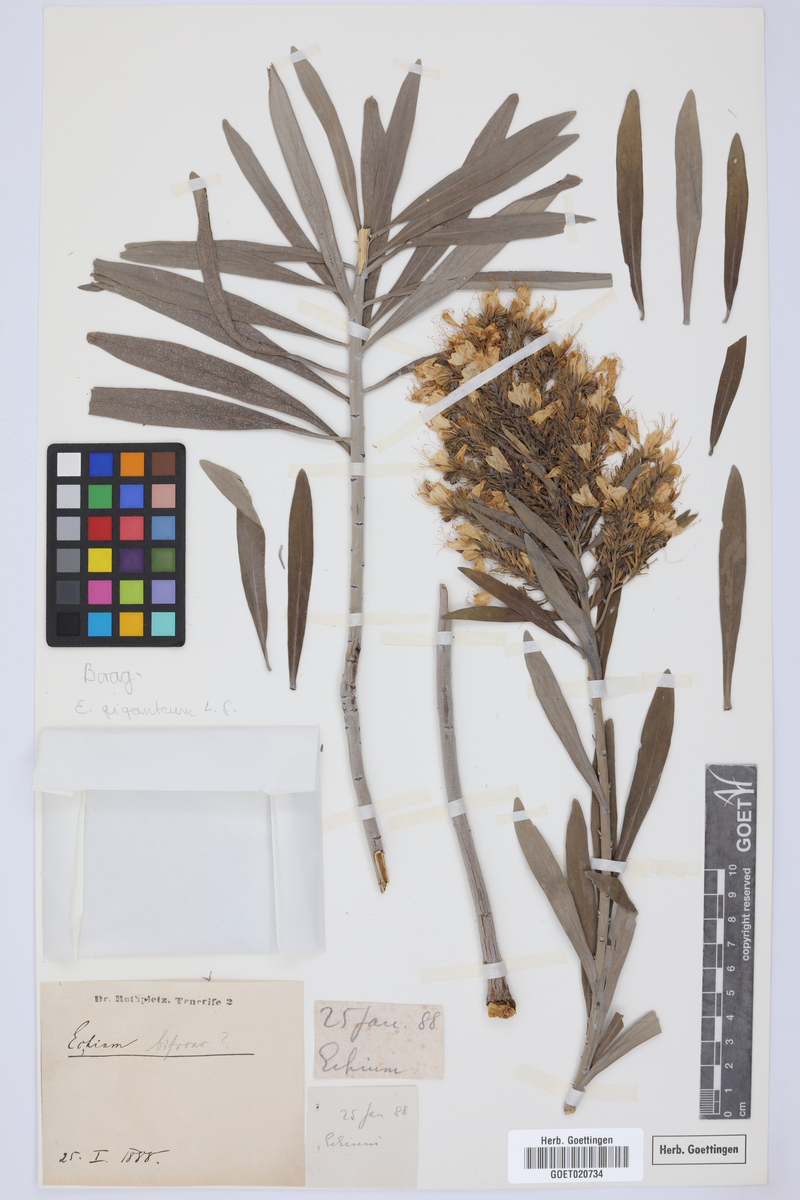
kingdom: Plantae
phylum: Tracheophyta
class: Magnoliopsida
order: Boraginales
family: Boraginaceae
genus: Echium
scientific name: Echium giganteum
